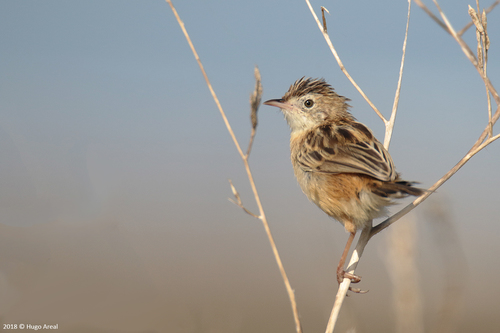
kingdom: Animalia
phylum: Chordata
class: Aves
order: Passeriformes
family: Cisticolidae
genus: Cisticola
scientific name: Cisticola juncidis
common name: Zitting cisticola
